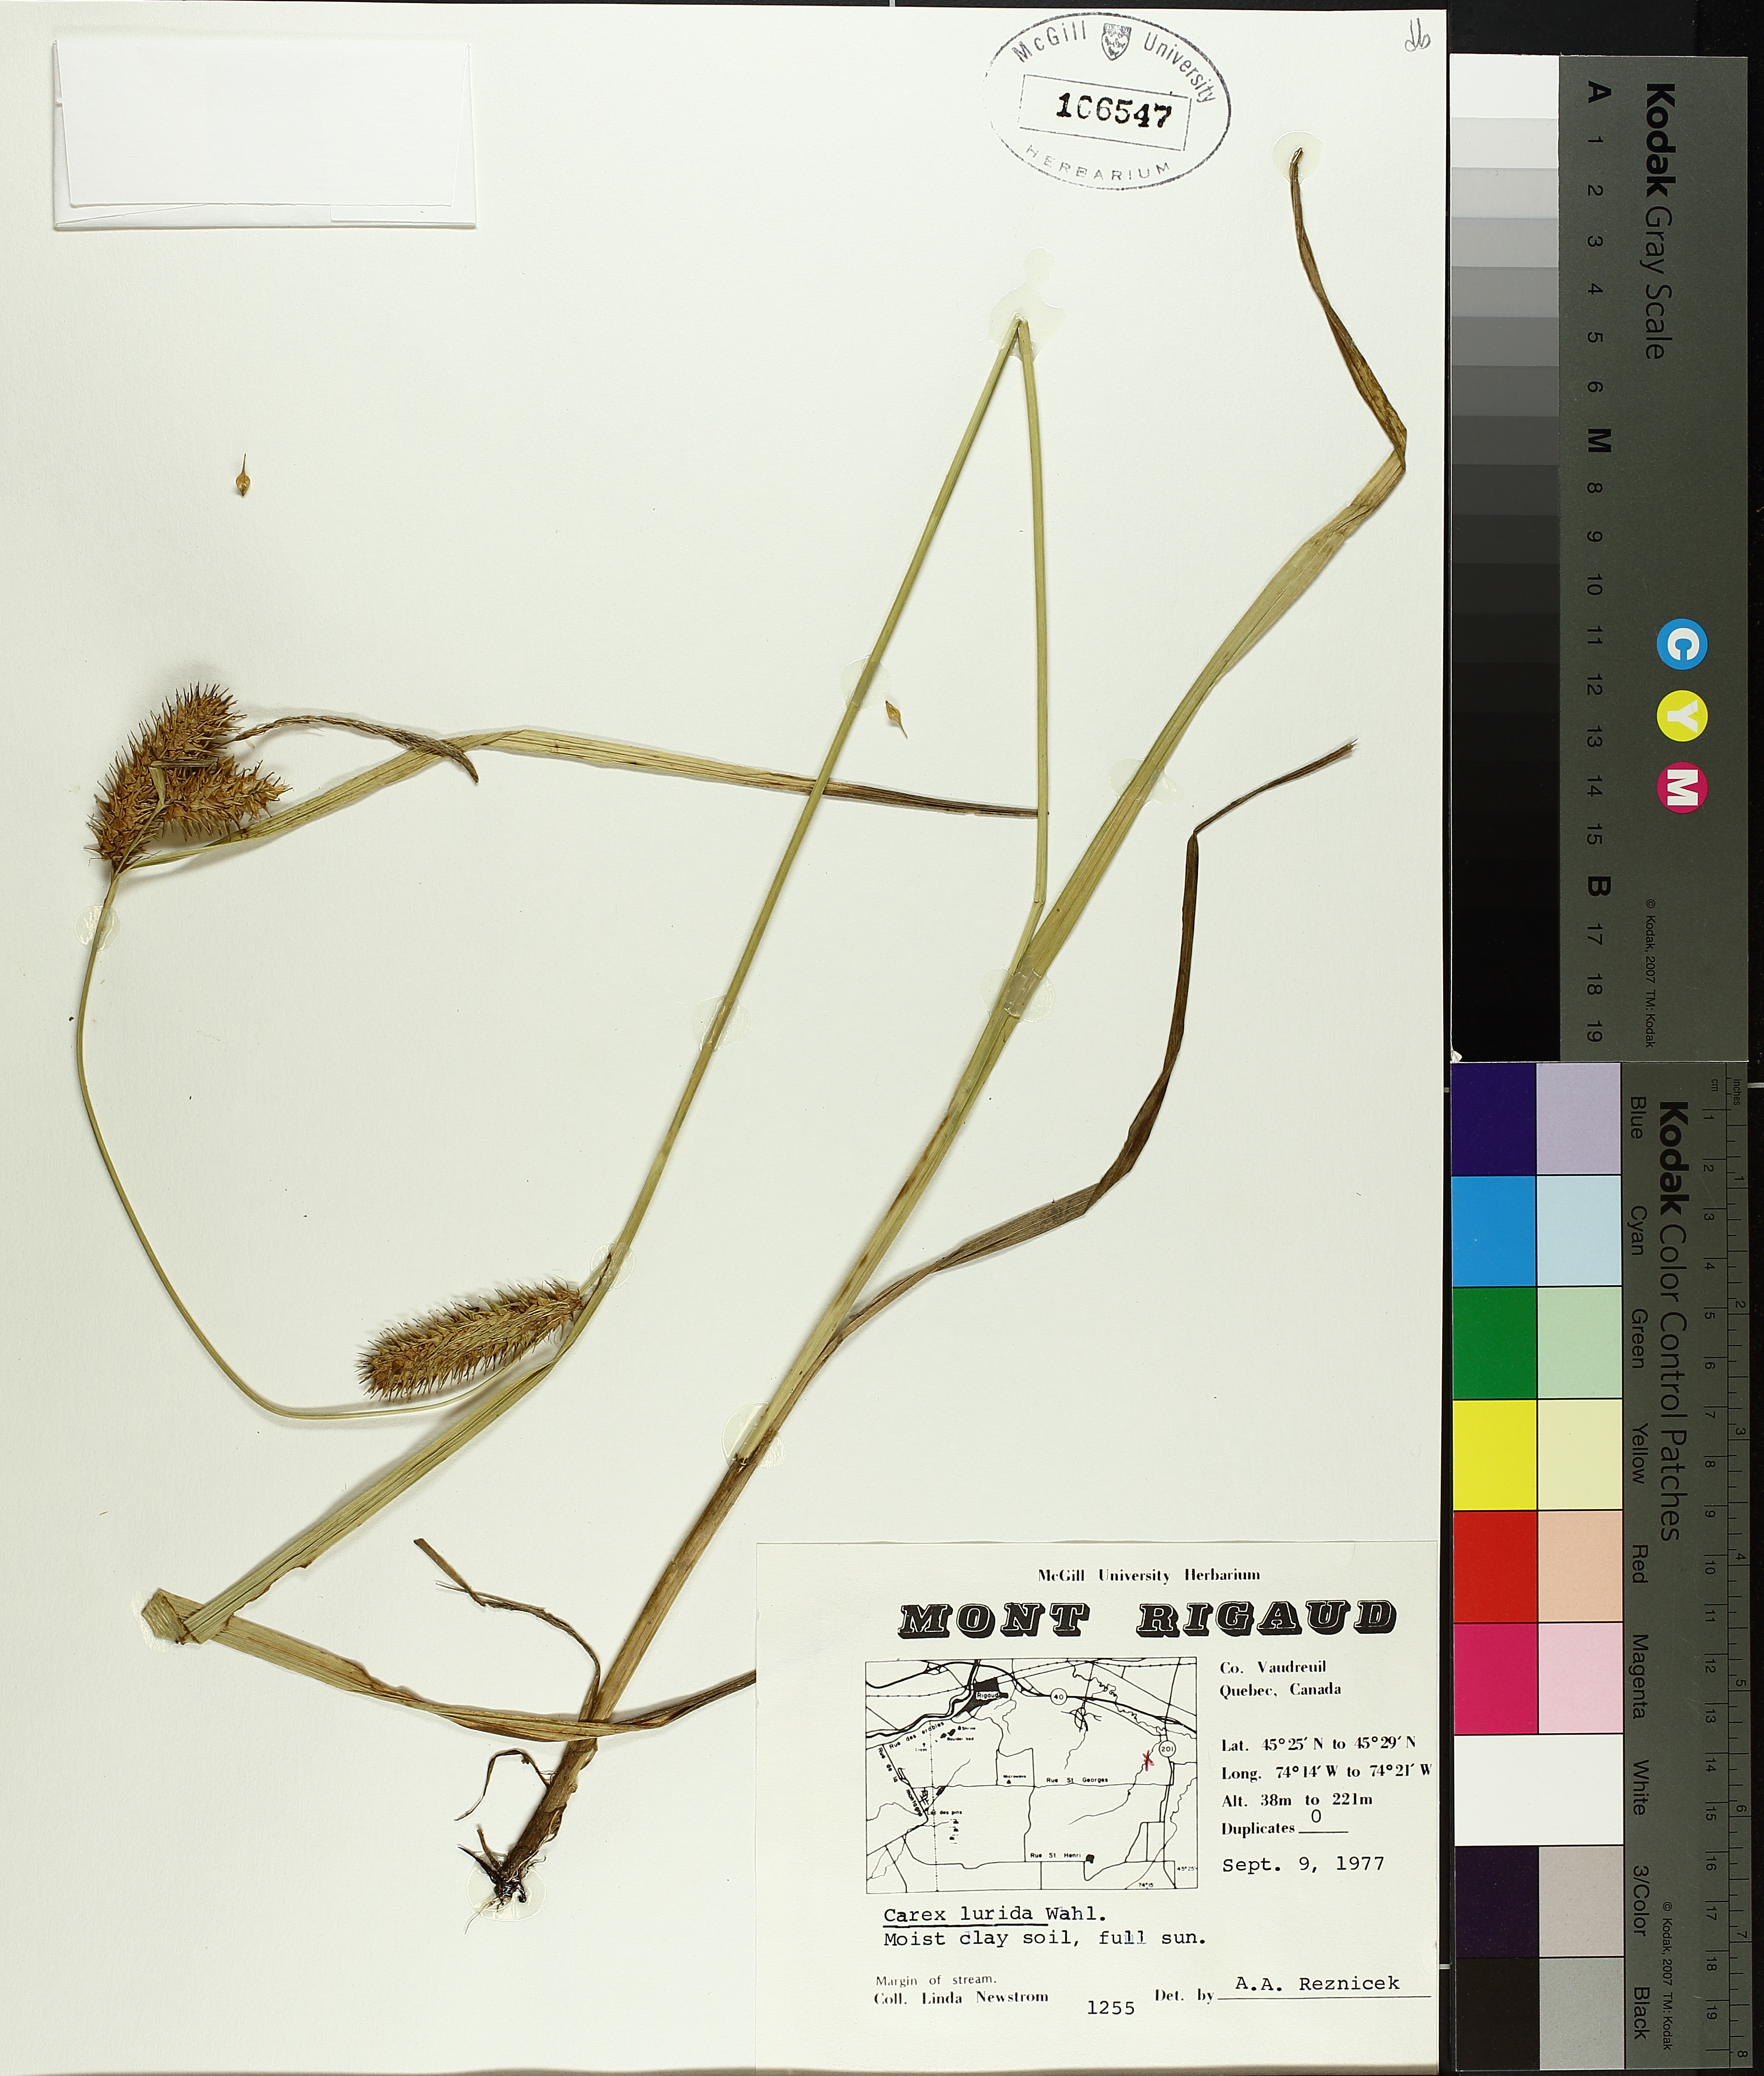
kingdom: Plantae
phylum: Tracheophyta
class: Liliopsida
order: Poales
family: Cyperaceae
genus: Carex
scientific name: Carex lurida
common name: Sallow sedge
